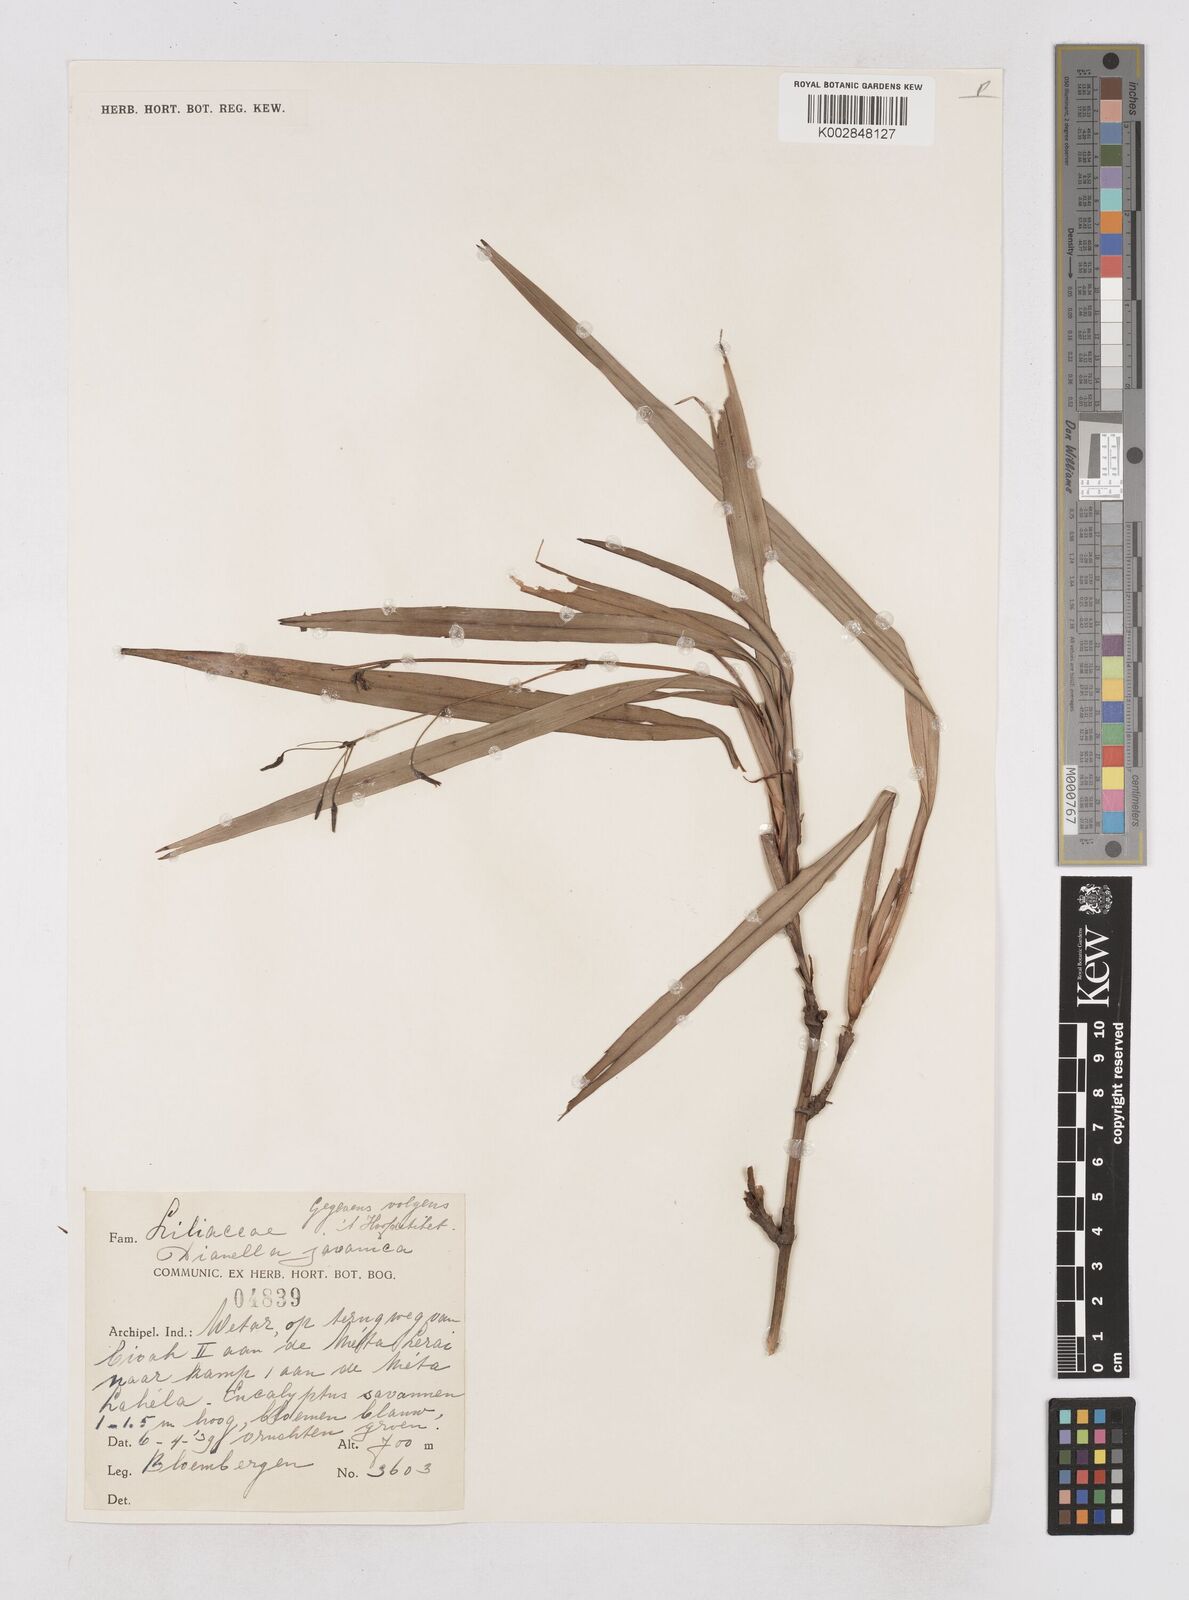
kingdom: Plantae
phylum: Tracheophyta
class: Liliopsida
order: Asparagales
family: Asphodelaceae
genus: Dianella
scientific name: Dianella ensifolia
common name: New zealand lilyplant
